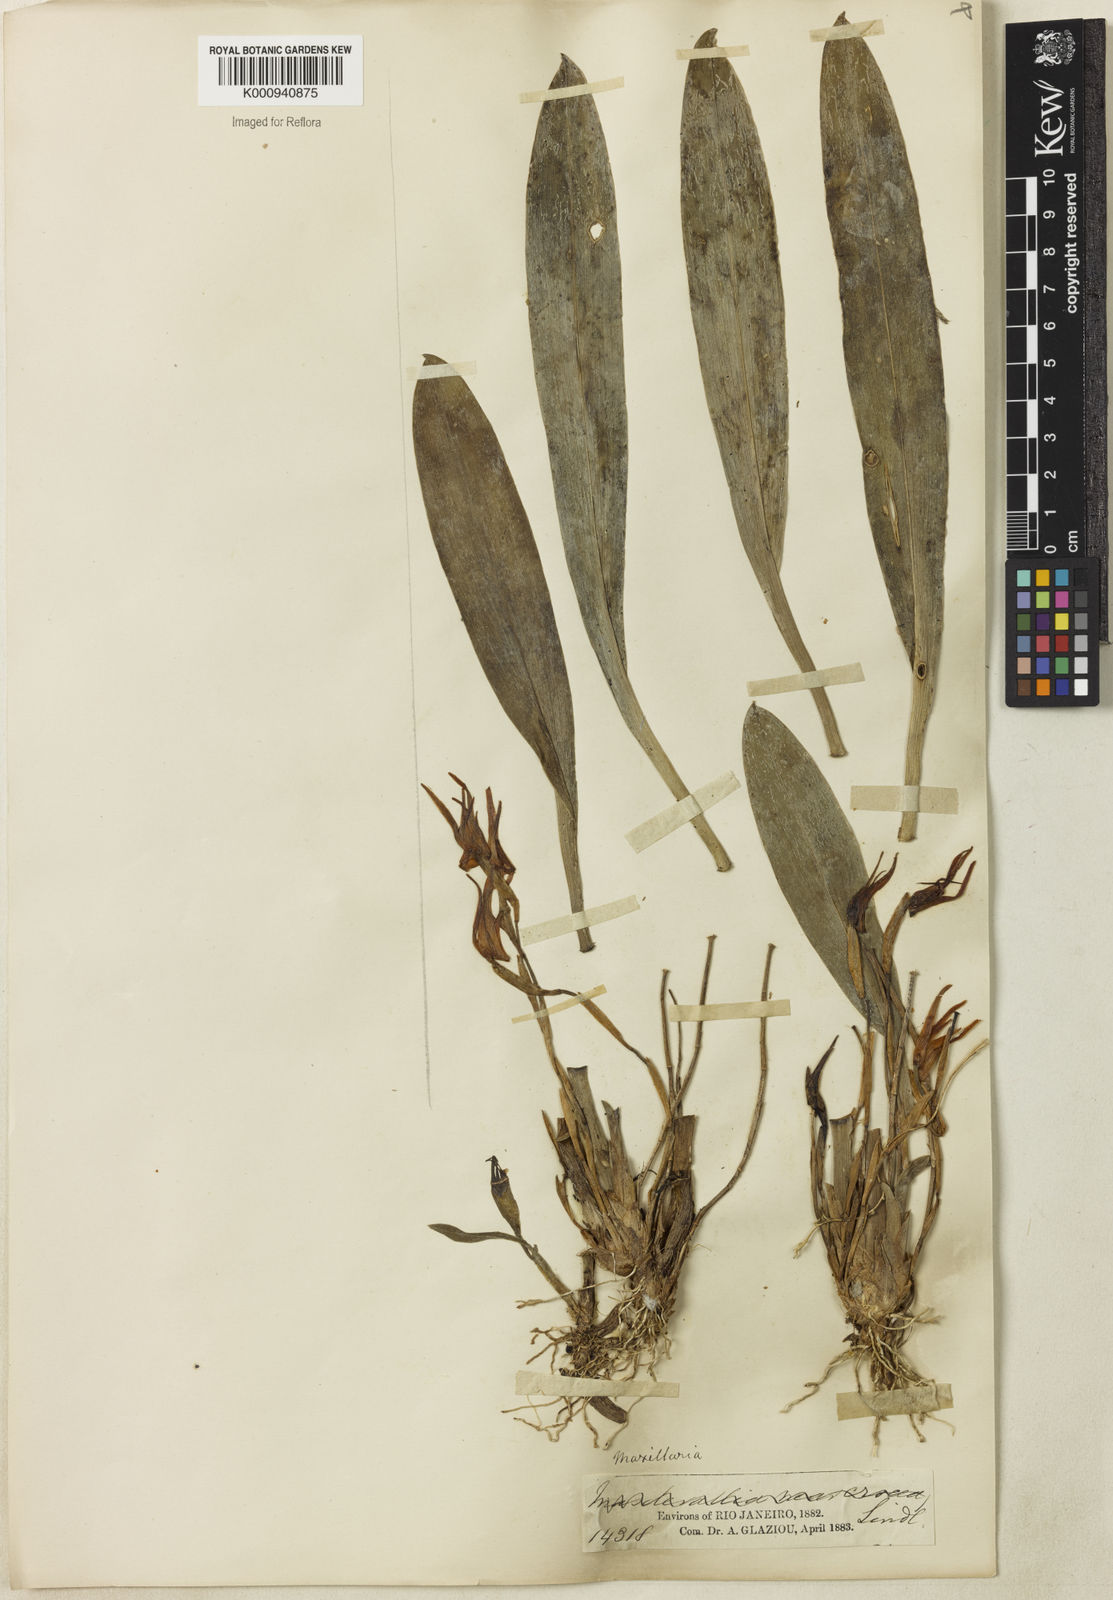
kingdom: Plantae
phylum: Tracheophyta
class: Liliopsida
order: Asparagales
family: Orchidaceae
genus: Maxillaria
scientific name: Maxillaria crocea
